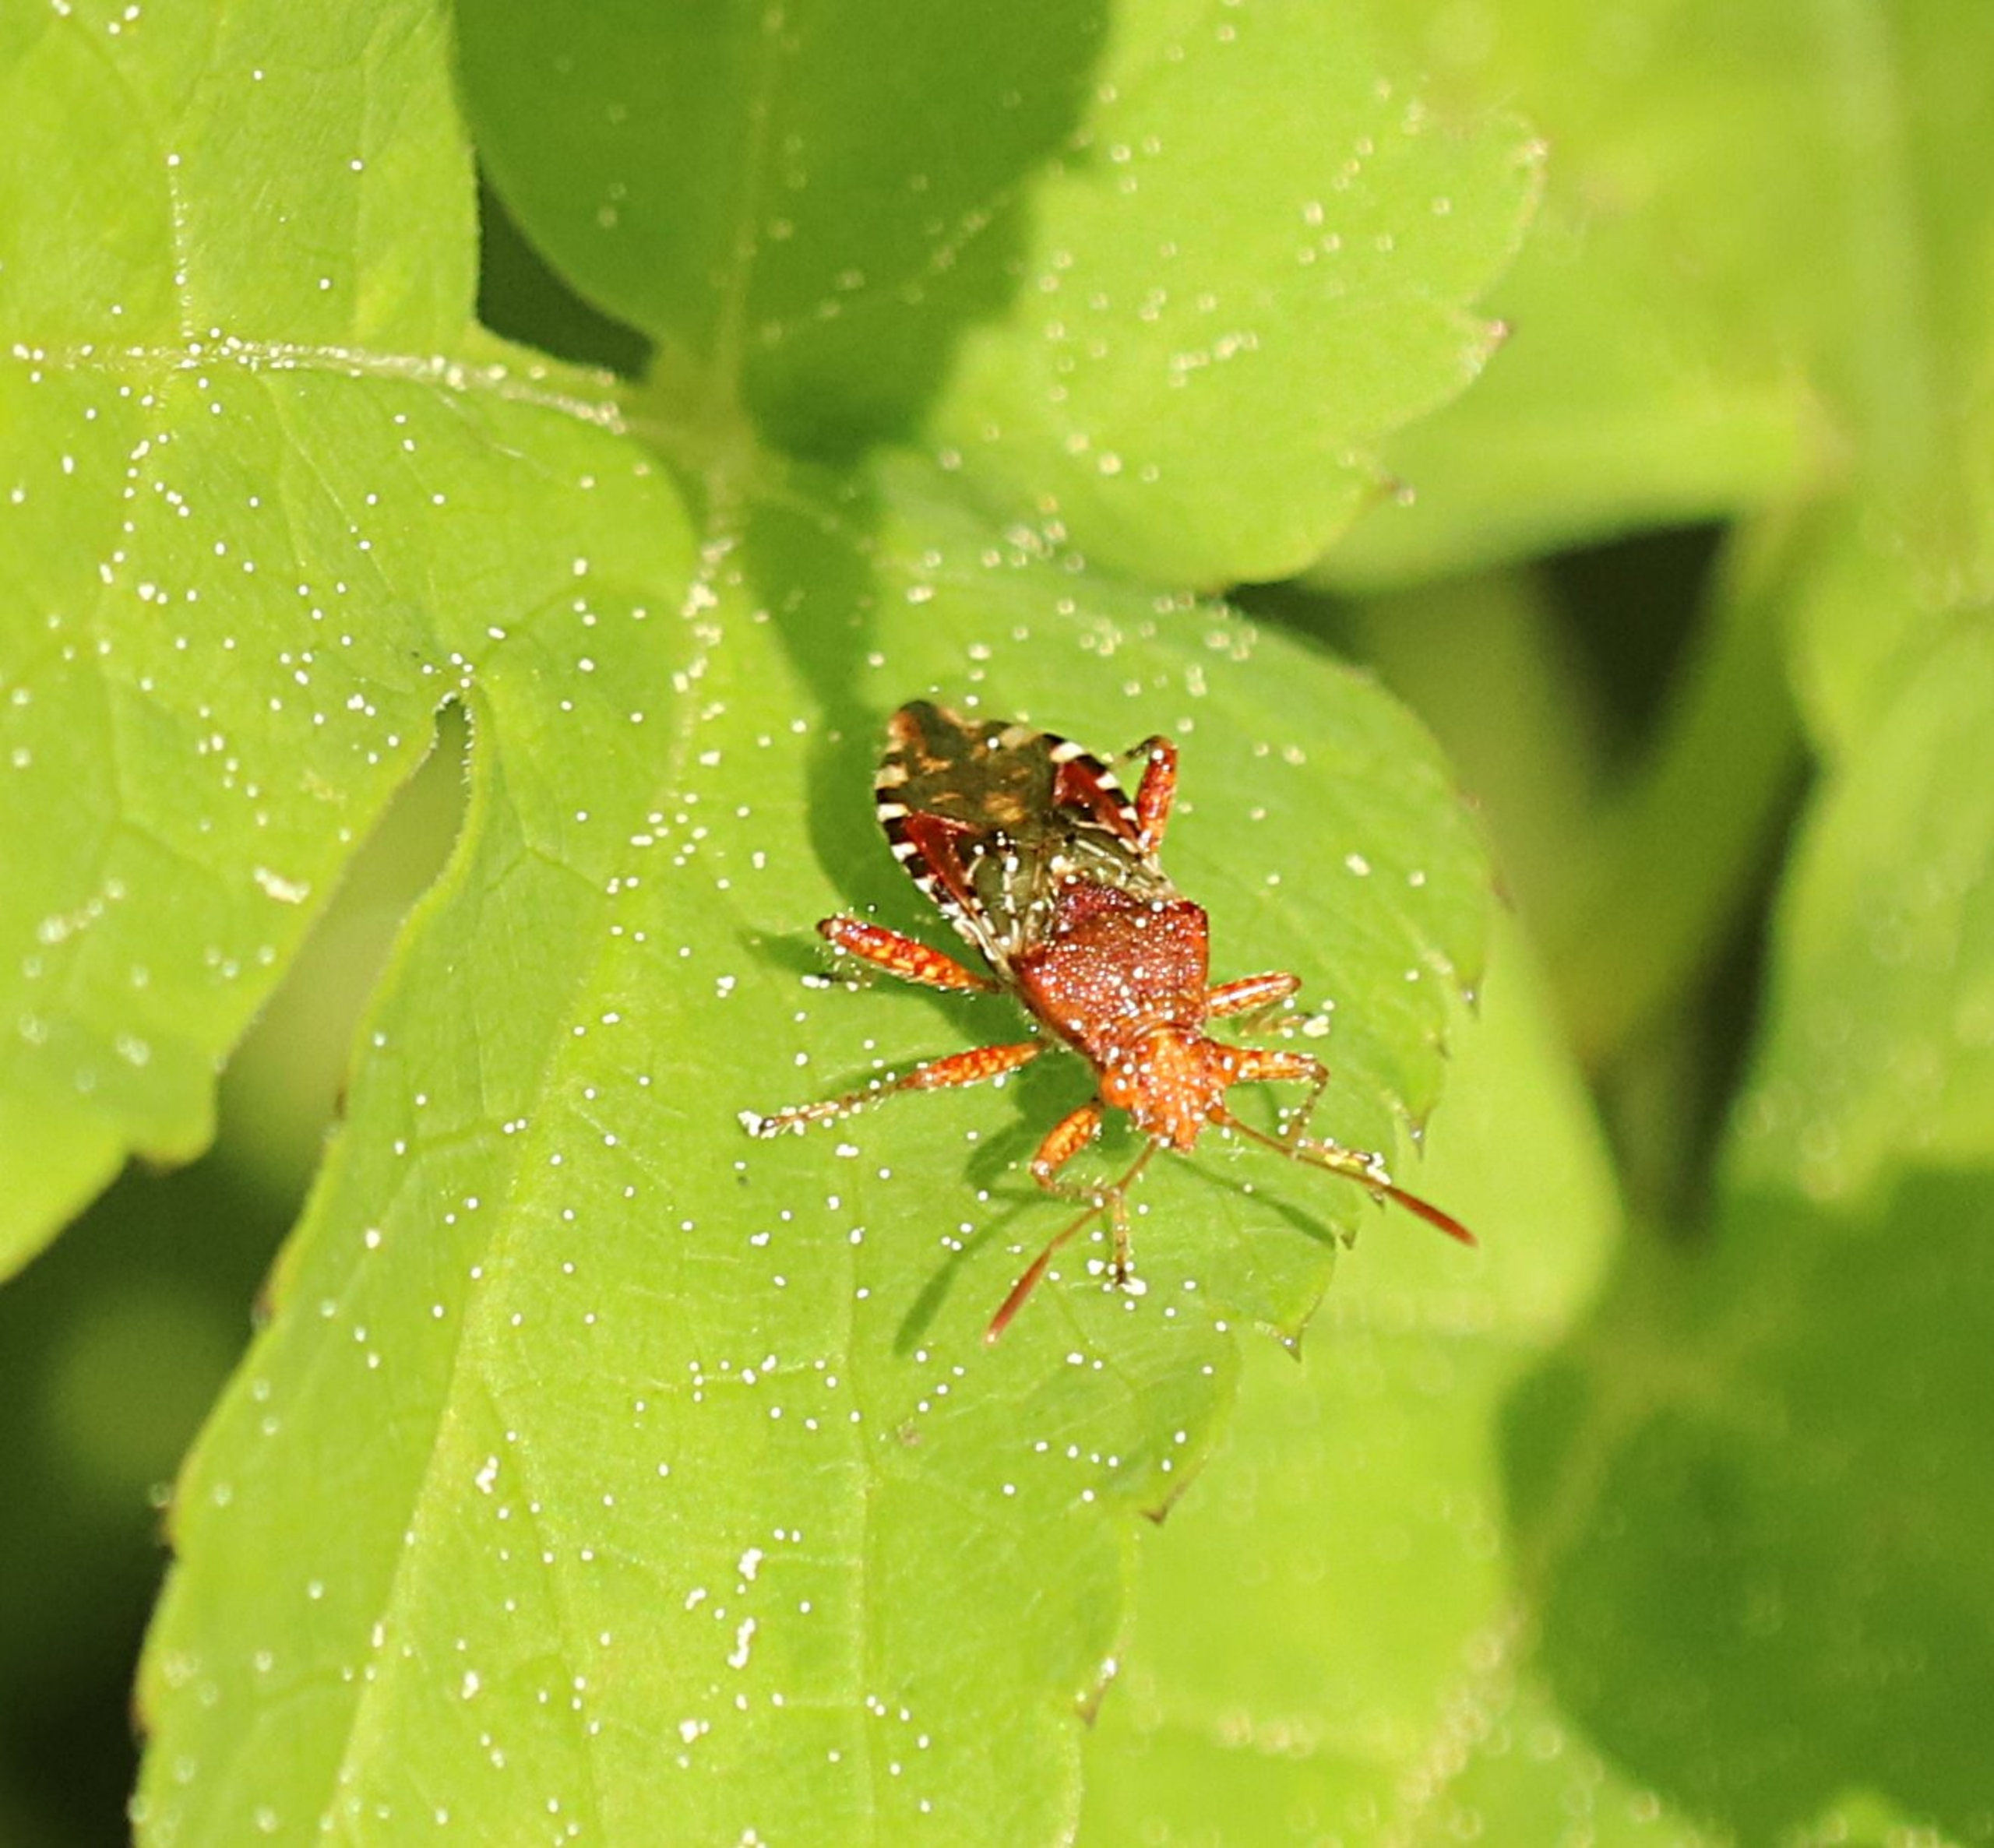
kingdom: Animalia
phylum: Arthropoda
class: Insecta
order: Hemiptera
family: Rhopalidae
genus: Rhopalus
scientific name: Rhopalus subrufus
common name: Skovkanttæge
